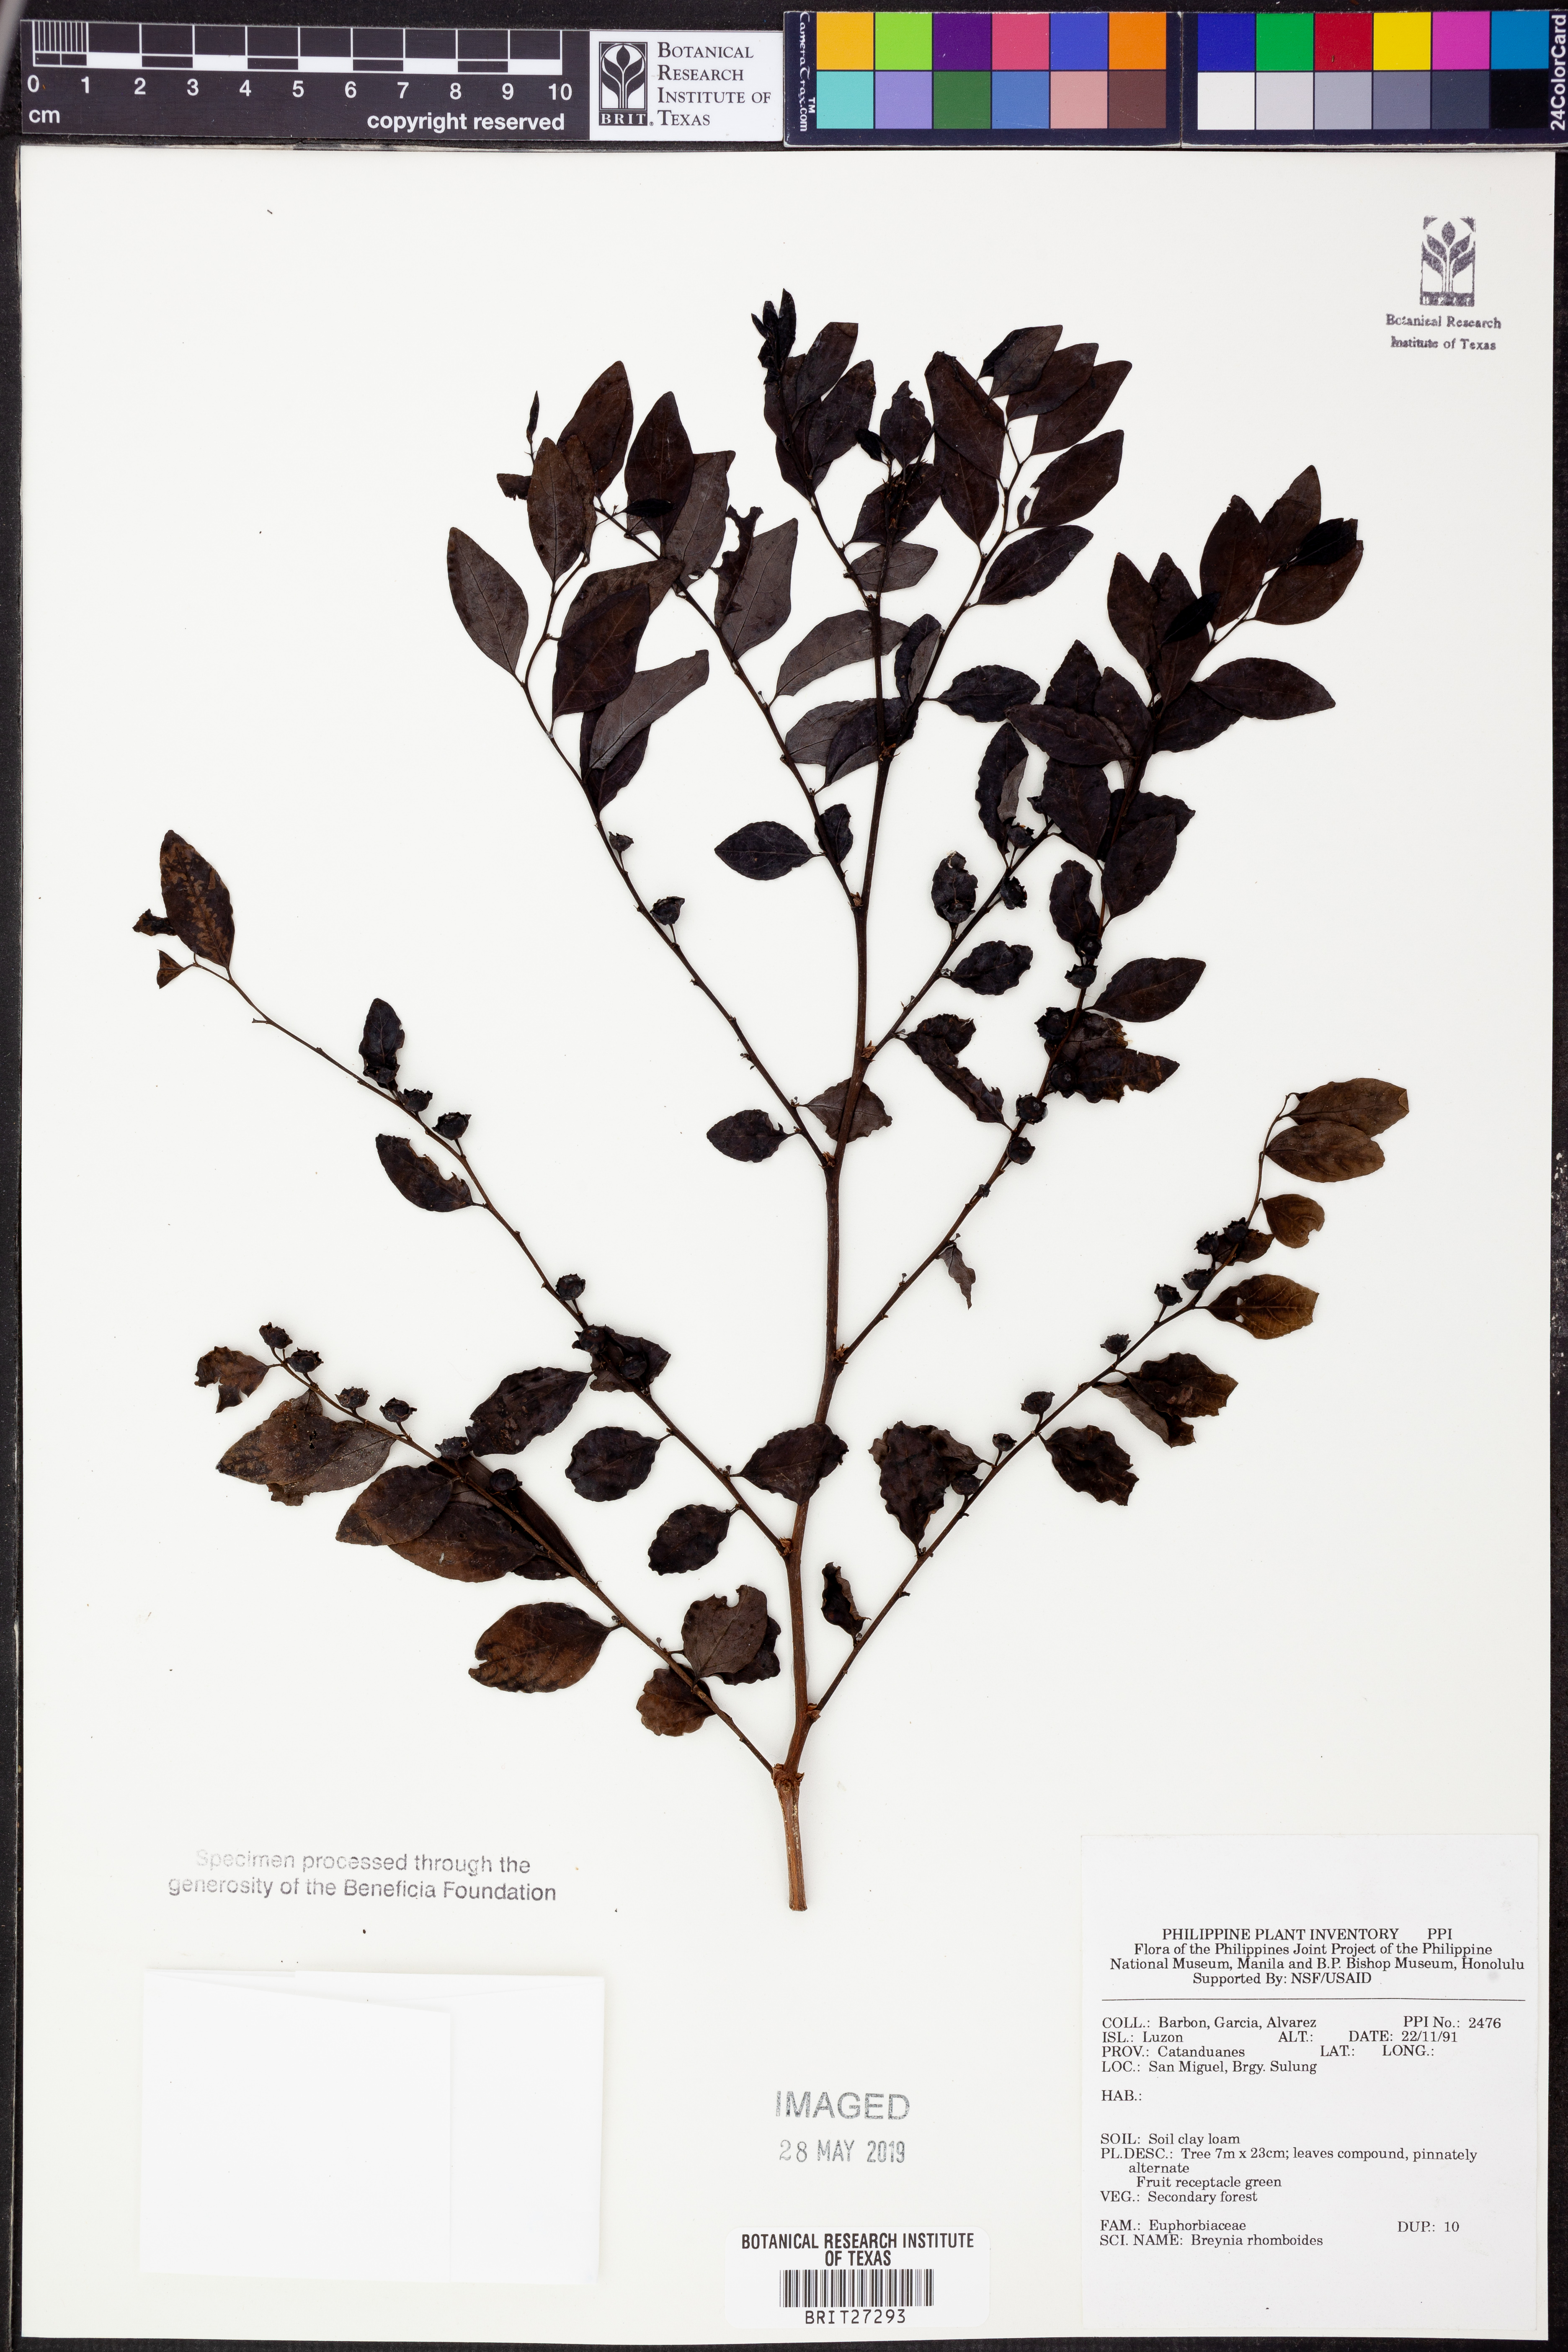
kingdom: Plantae
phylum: Tracheophyta
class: Magnoliopsida
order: Malpighiales
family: Phyllanthaceae
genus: Breynia
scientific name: Breynia
